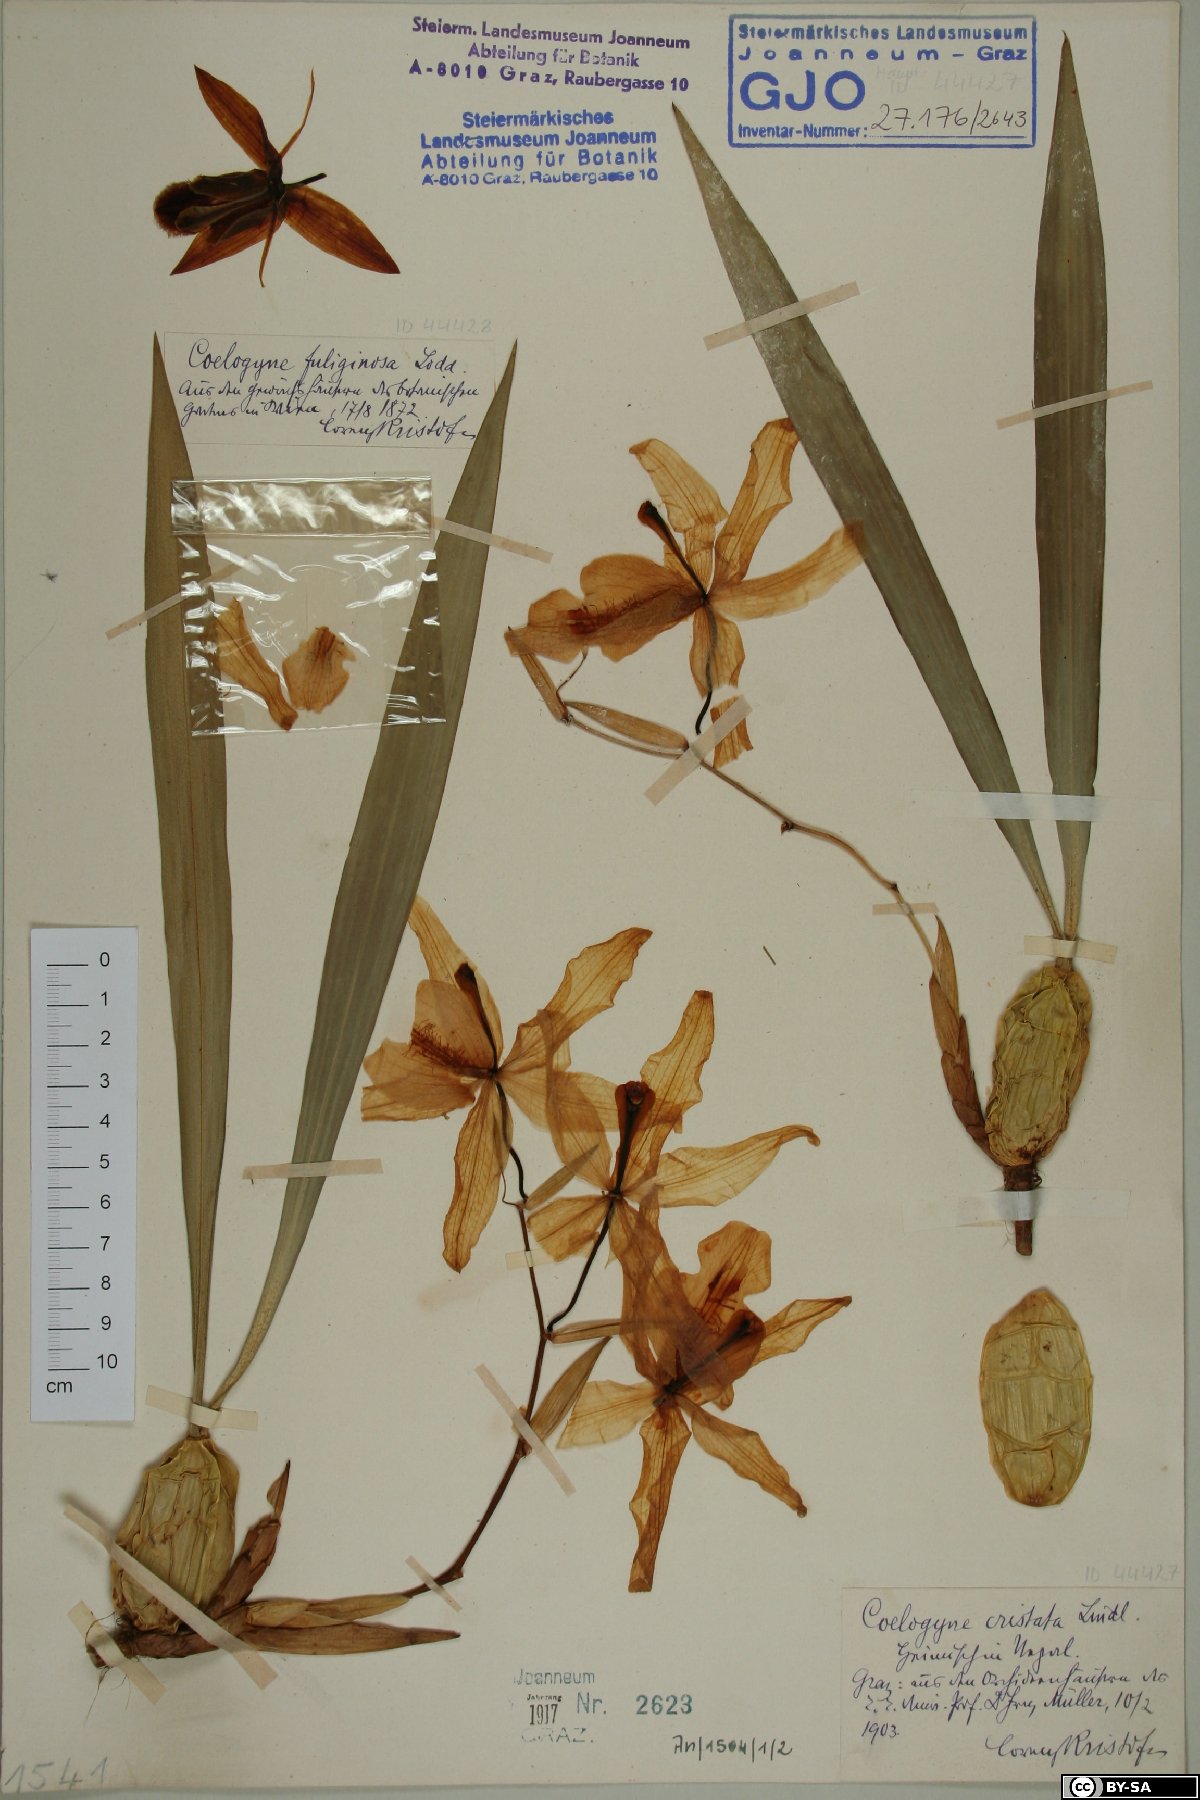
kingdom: Plantae
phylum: Tracheophyta
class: Liliopsida
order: Asparagales
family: Orchidaceae
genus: Coelogyne
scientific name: Coelogyne cristata
